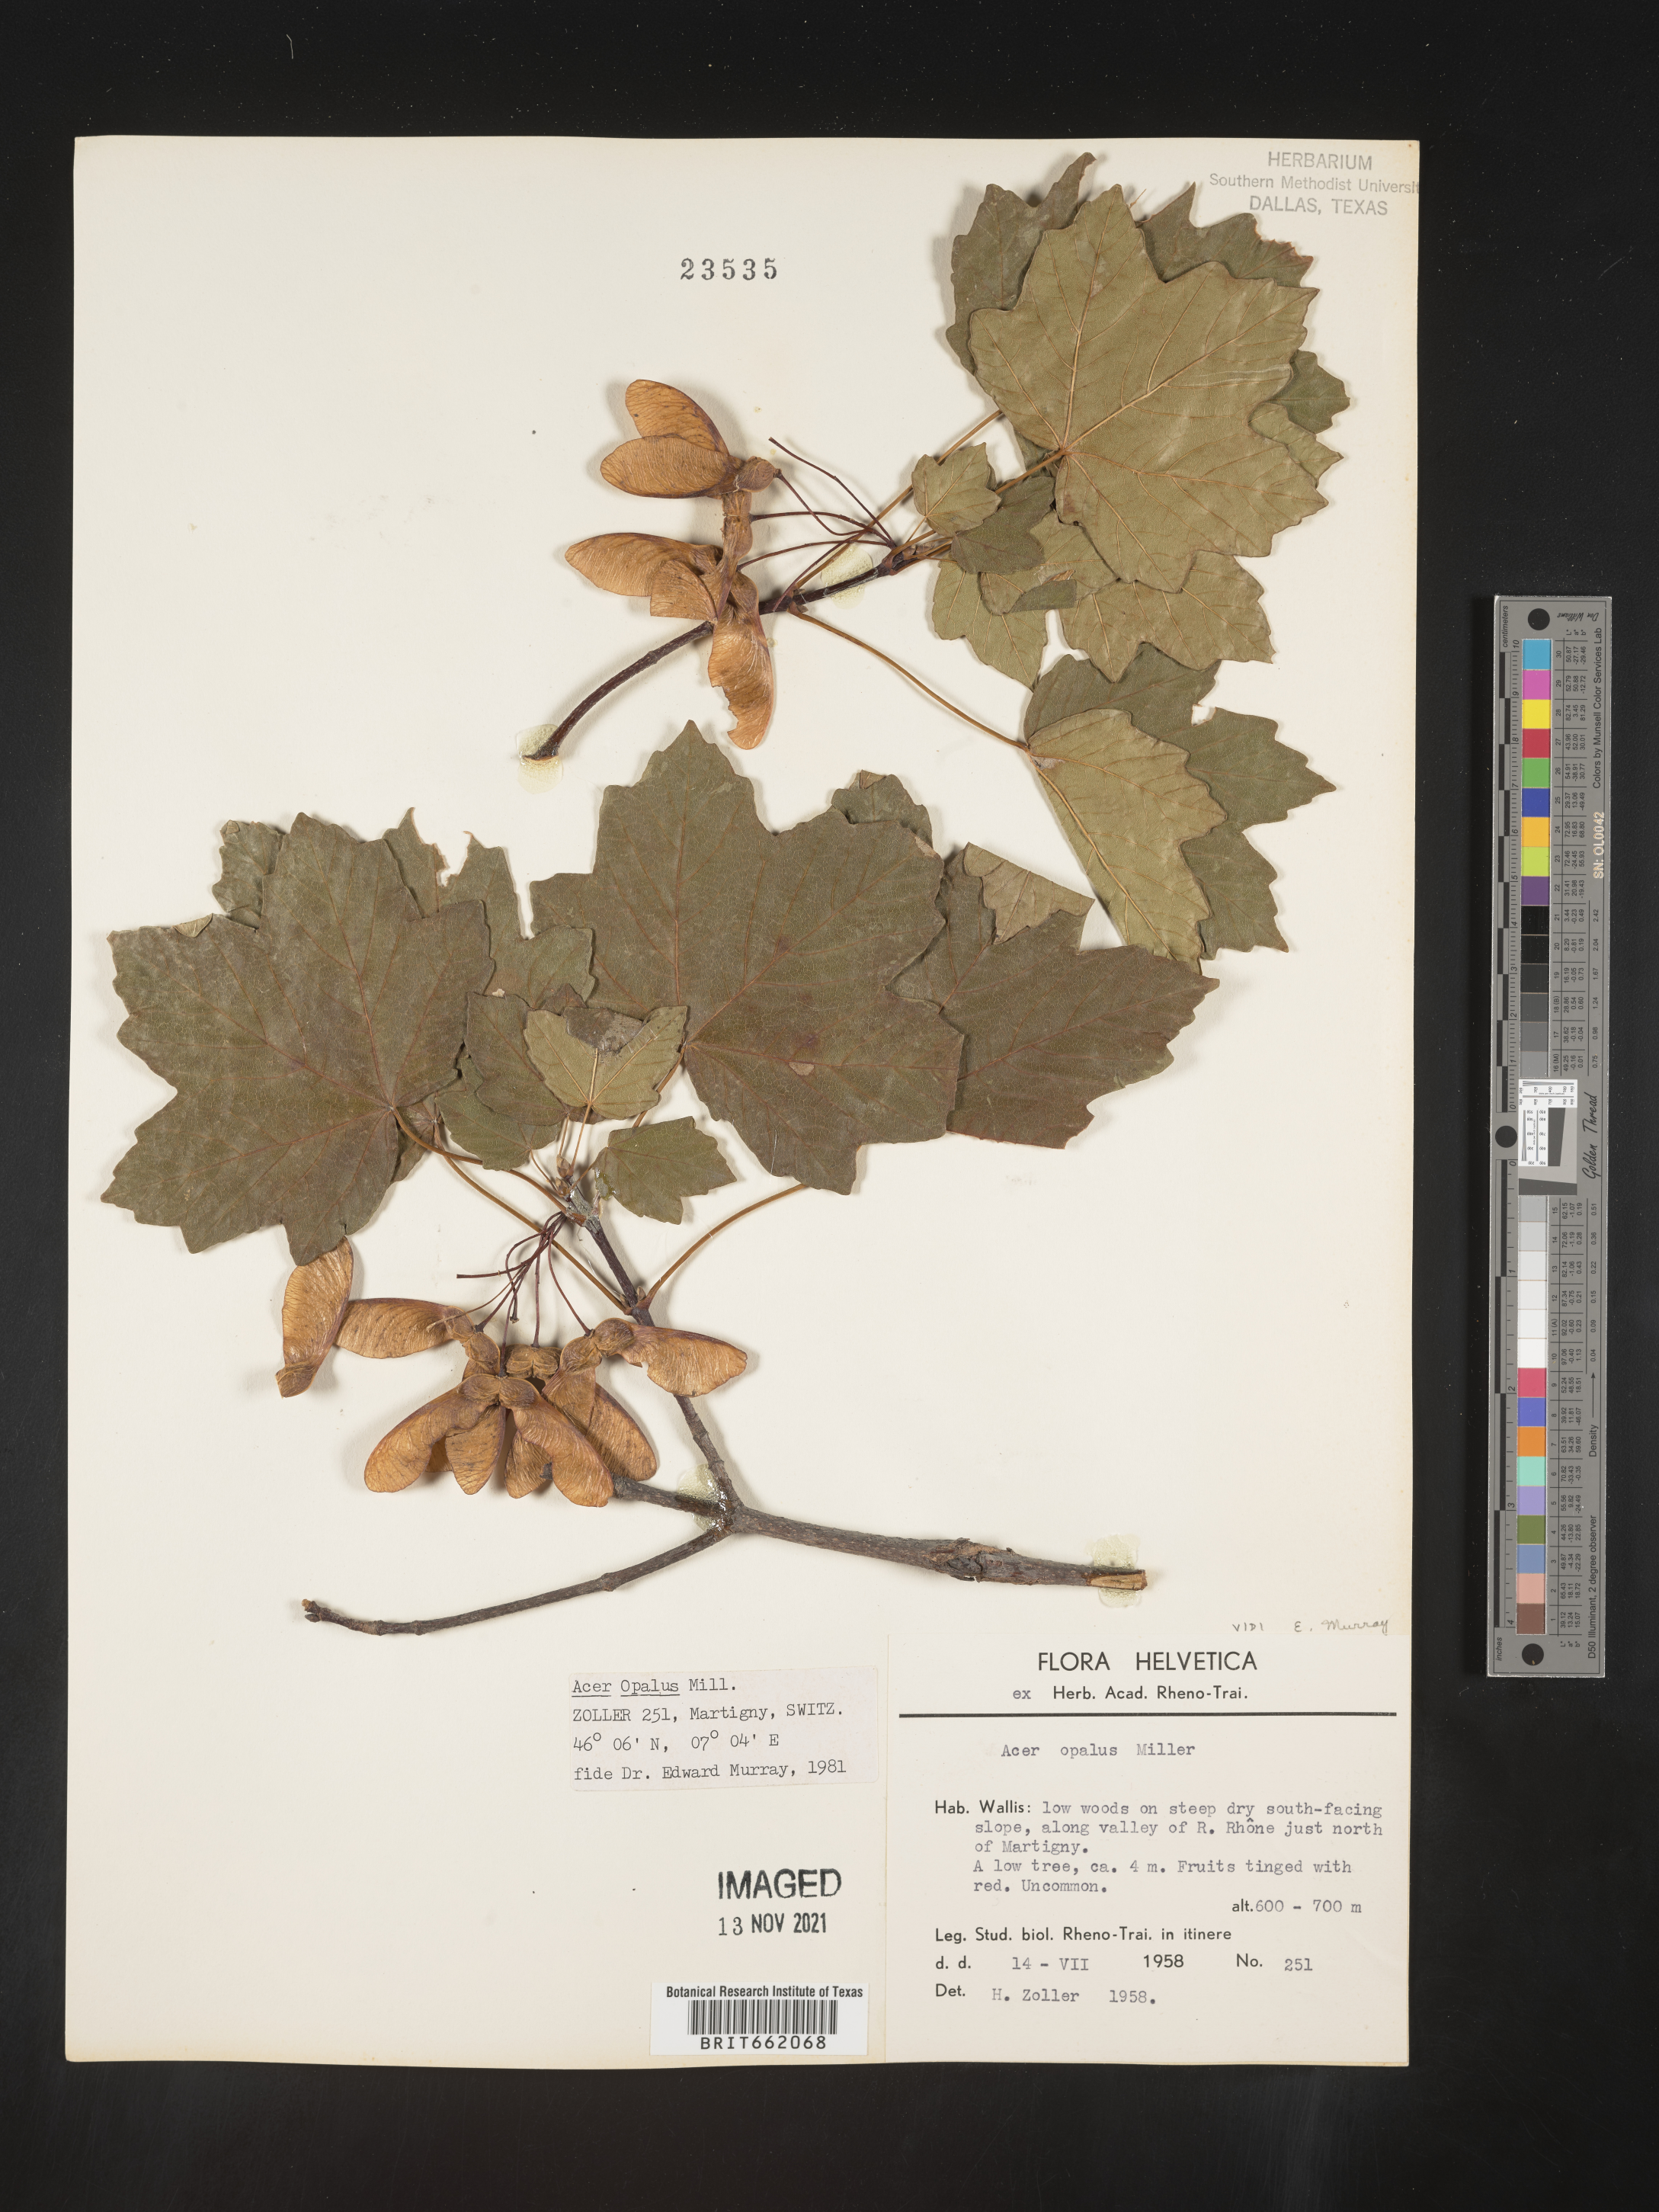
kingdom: Plantae
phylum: Tracheophyta
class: Magnoliopsida
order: Sapindales
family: Sapindaceae
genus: Acer
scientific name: Acer
